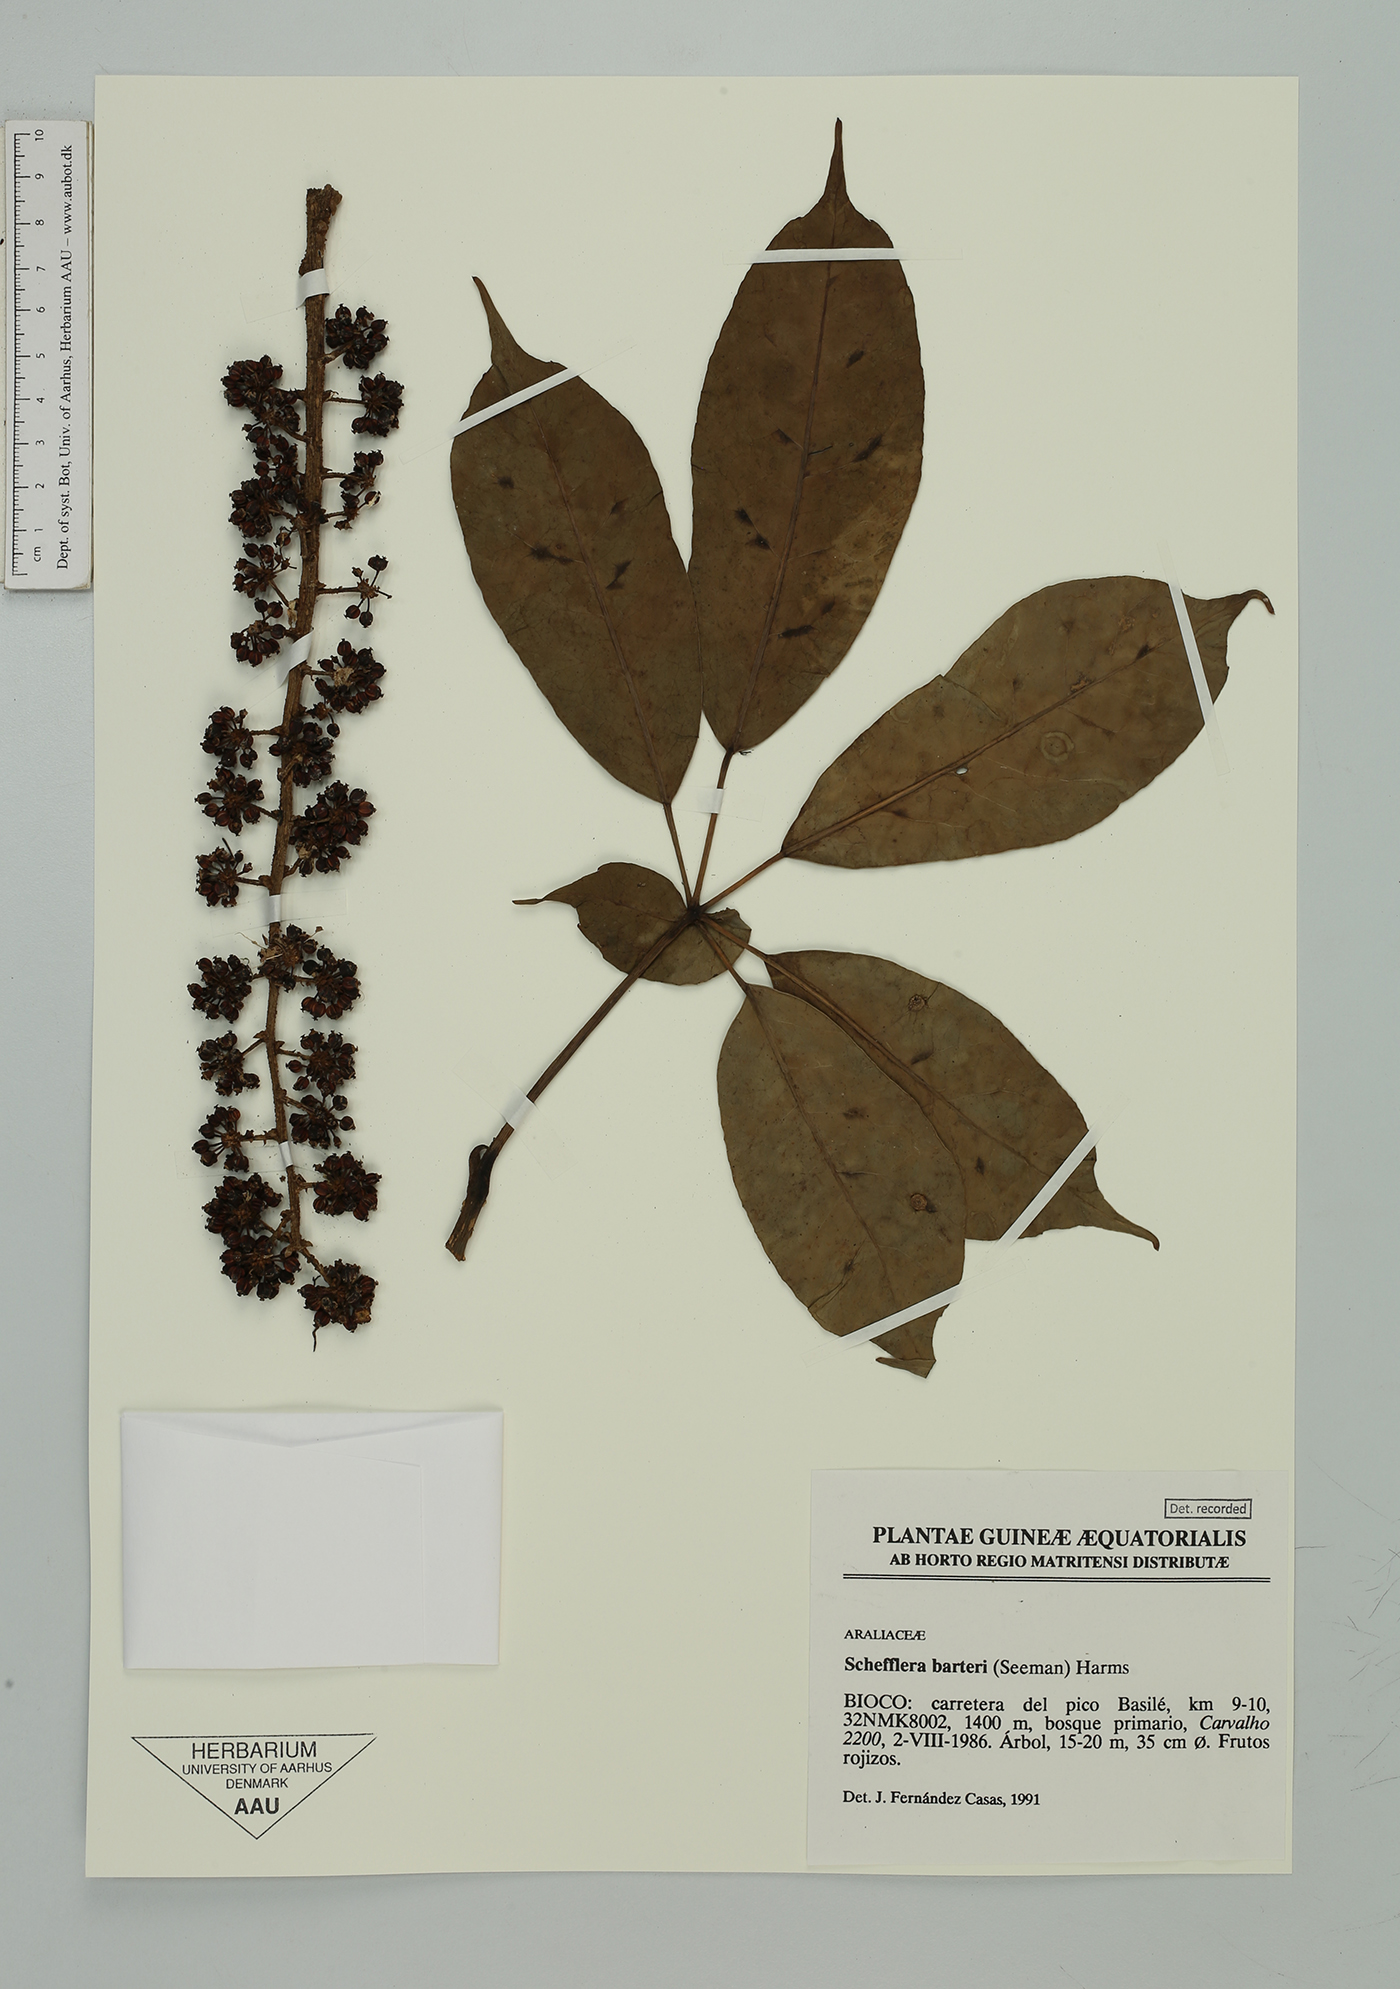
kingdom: Plantae
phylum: Tracheophyta
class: Magnoliopsida
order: Apiales
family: Araliaceae
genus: Astropanax
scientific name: Astropanax barteri
